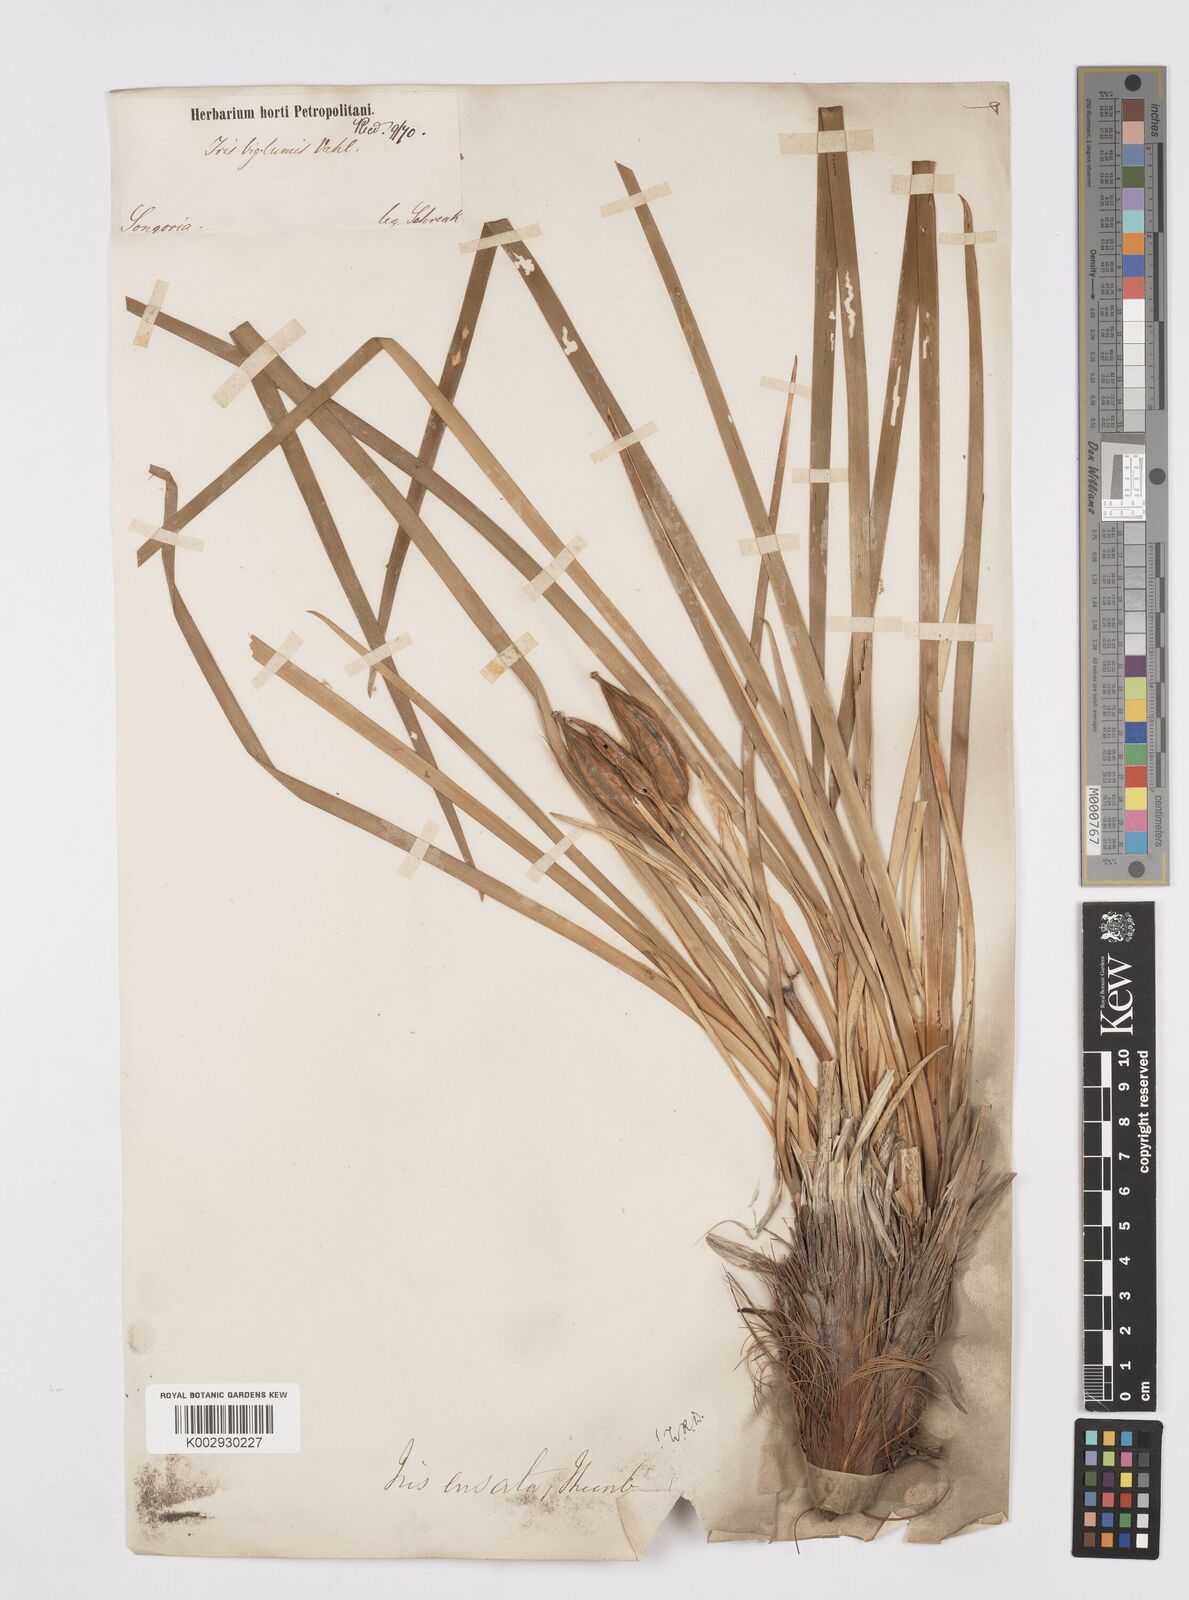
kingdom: Plantae
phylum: Tracheophyta
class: Liliopsida
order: Asparagales
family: Iridaceae
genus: Iris
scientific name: Iris ensata
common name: Beaked iris
